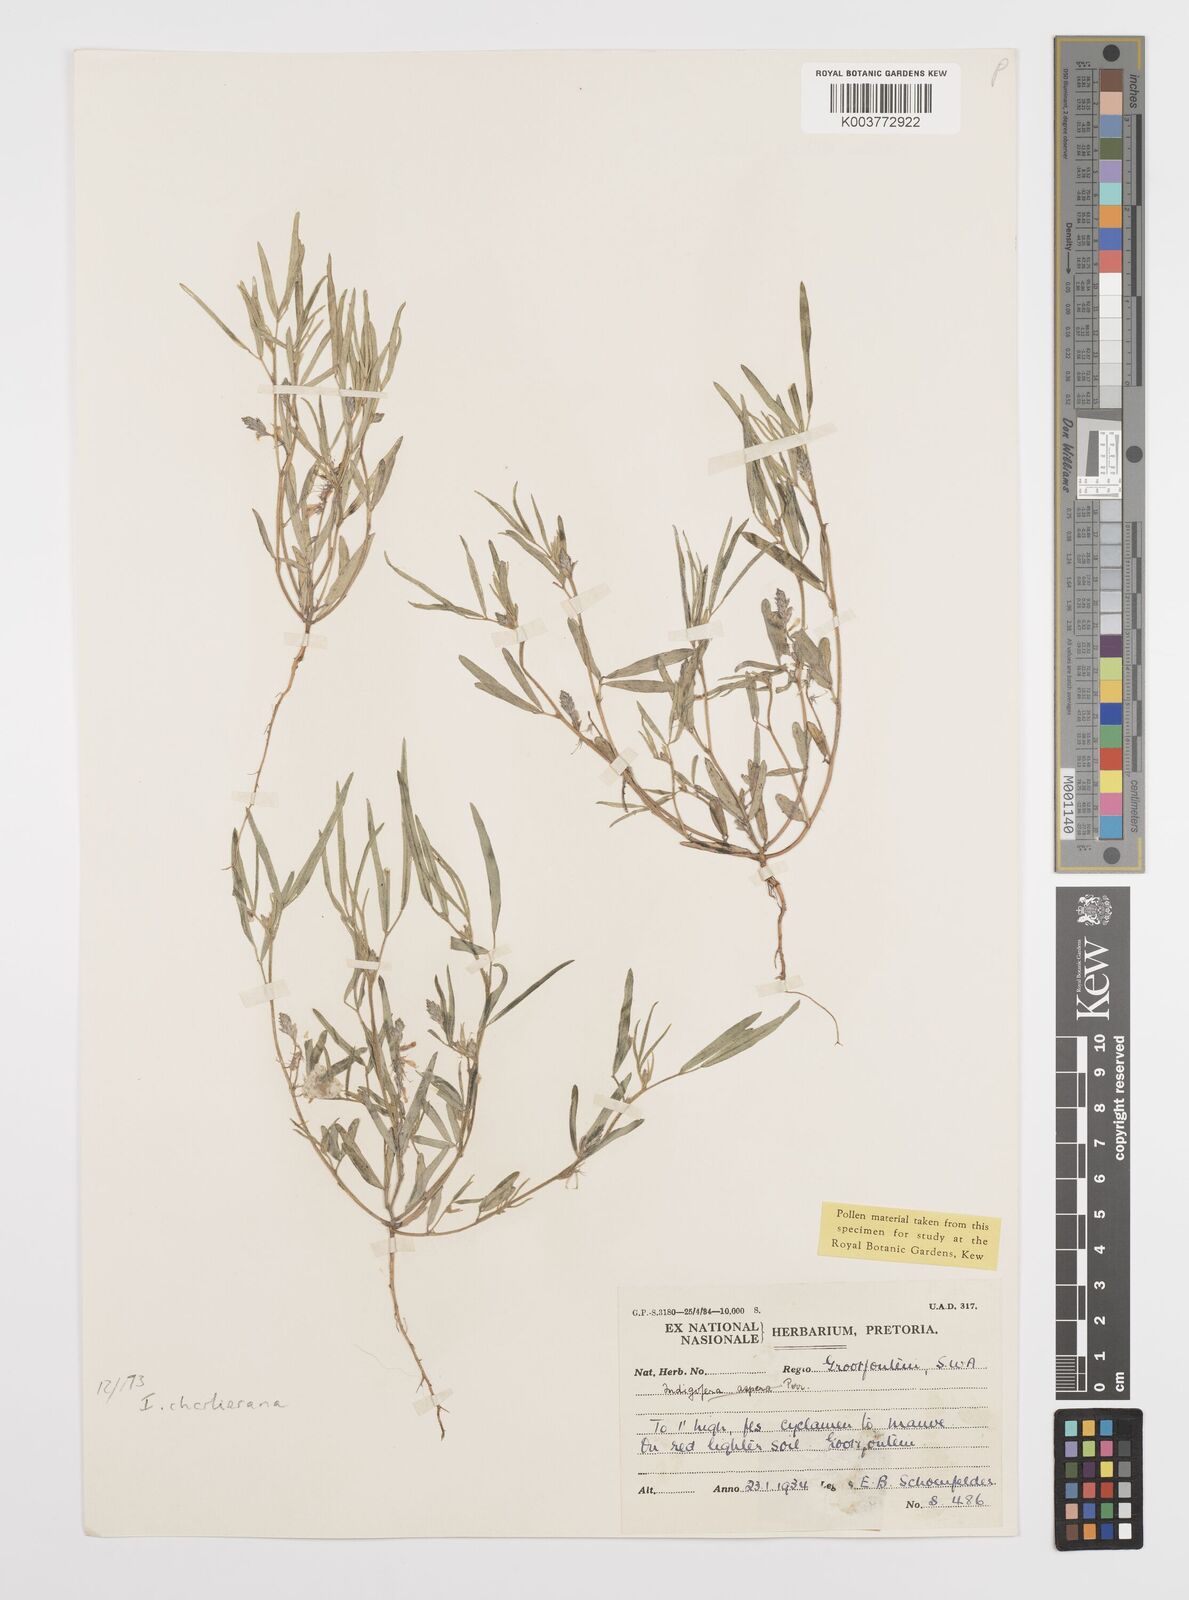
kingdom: Plantae
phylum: Tracheophyta
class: Magnoliopsida
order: Fabales
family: Fabaceae
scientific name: Fabaceae
